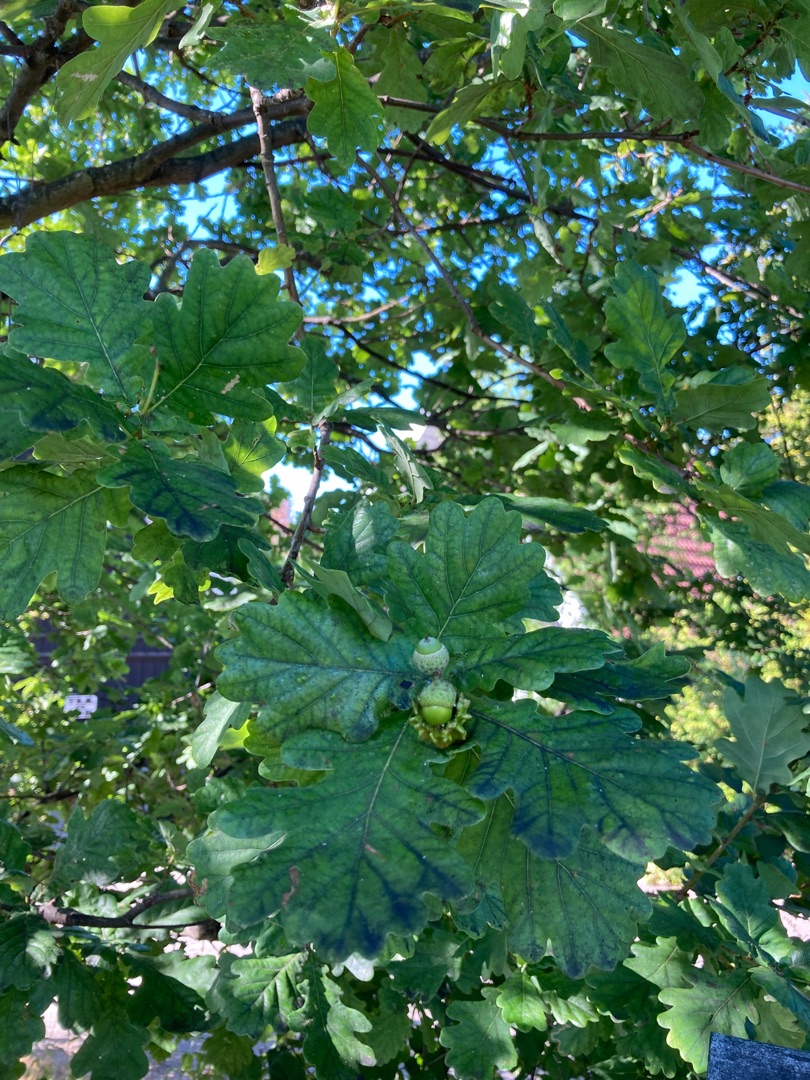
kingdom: Plantae
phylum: Tracheophyta
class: Magnoliopsida
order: Fagales
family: Fagaceae
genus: Quercus
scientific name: Quercus robur
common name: Stilk-eg/almindelig eg
